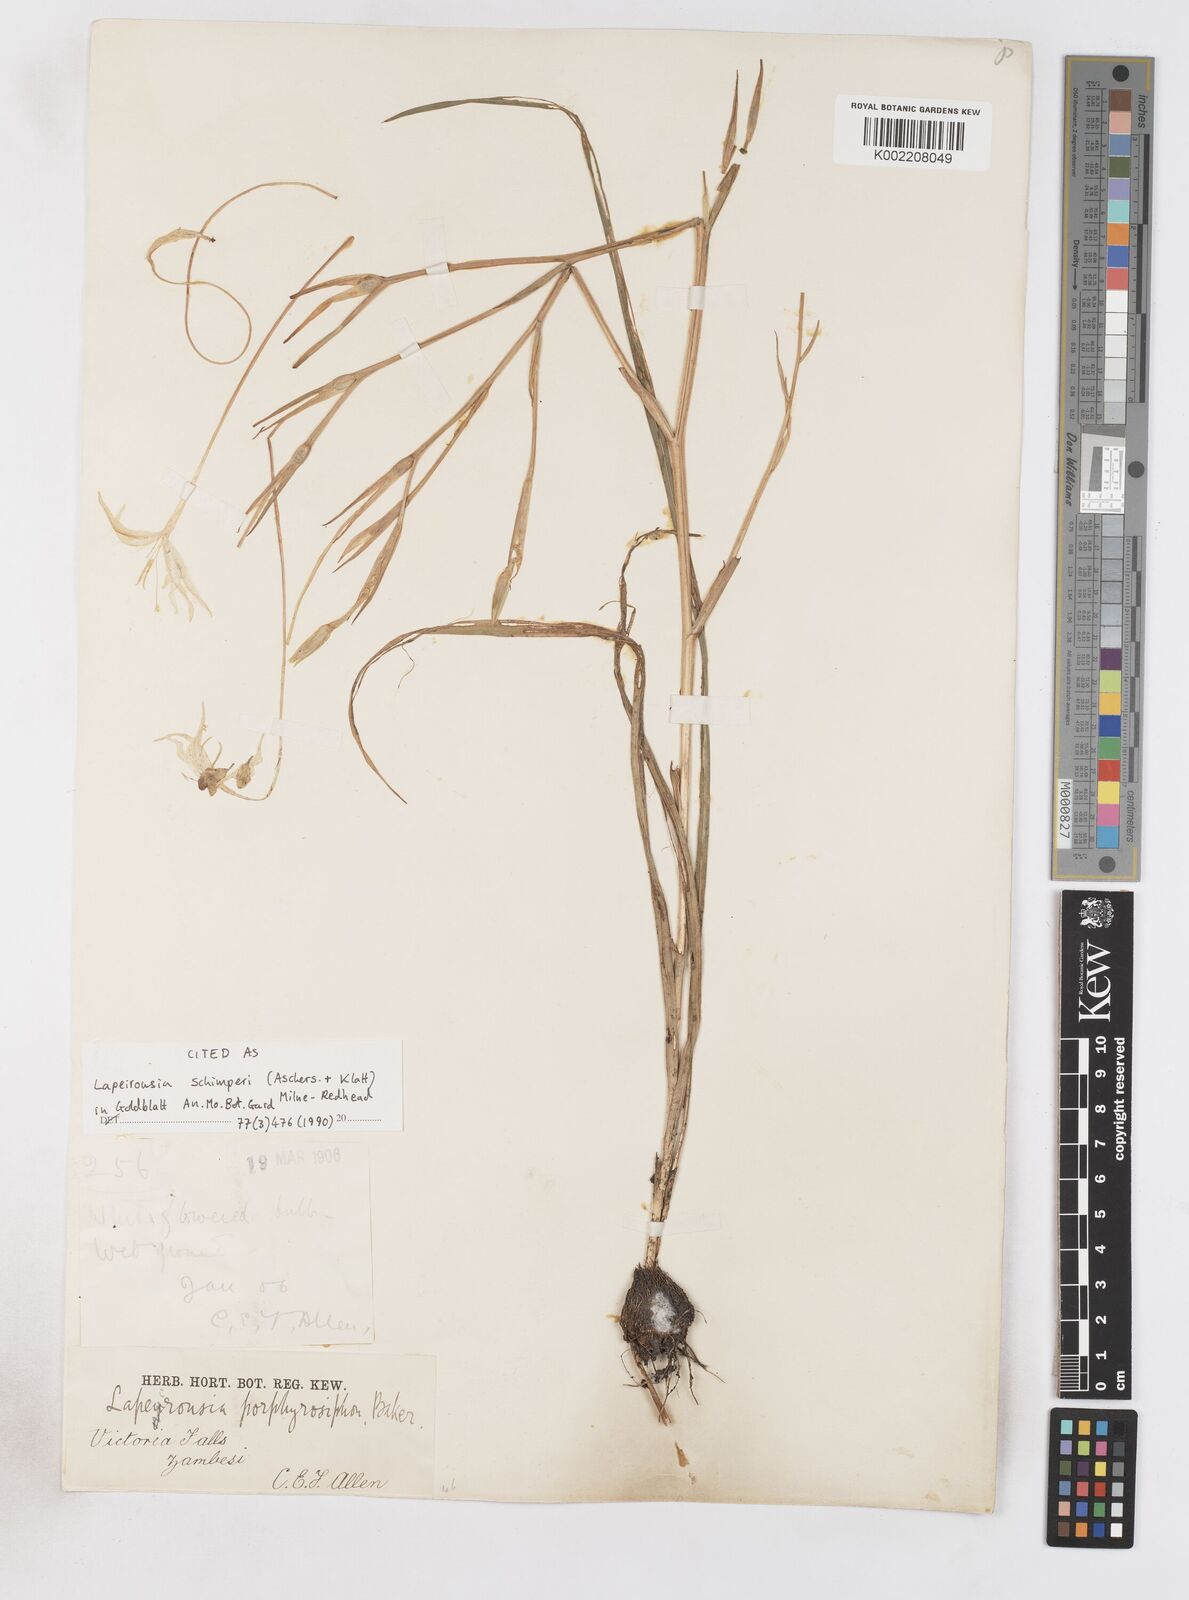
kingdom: Plantae
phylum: Tracheophyta
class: Liliopsida
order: Asparagales
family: Iridaceae
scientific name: Iridaceae
